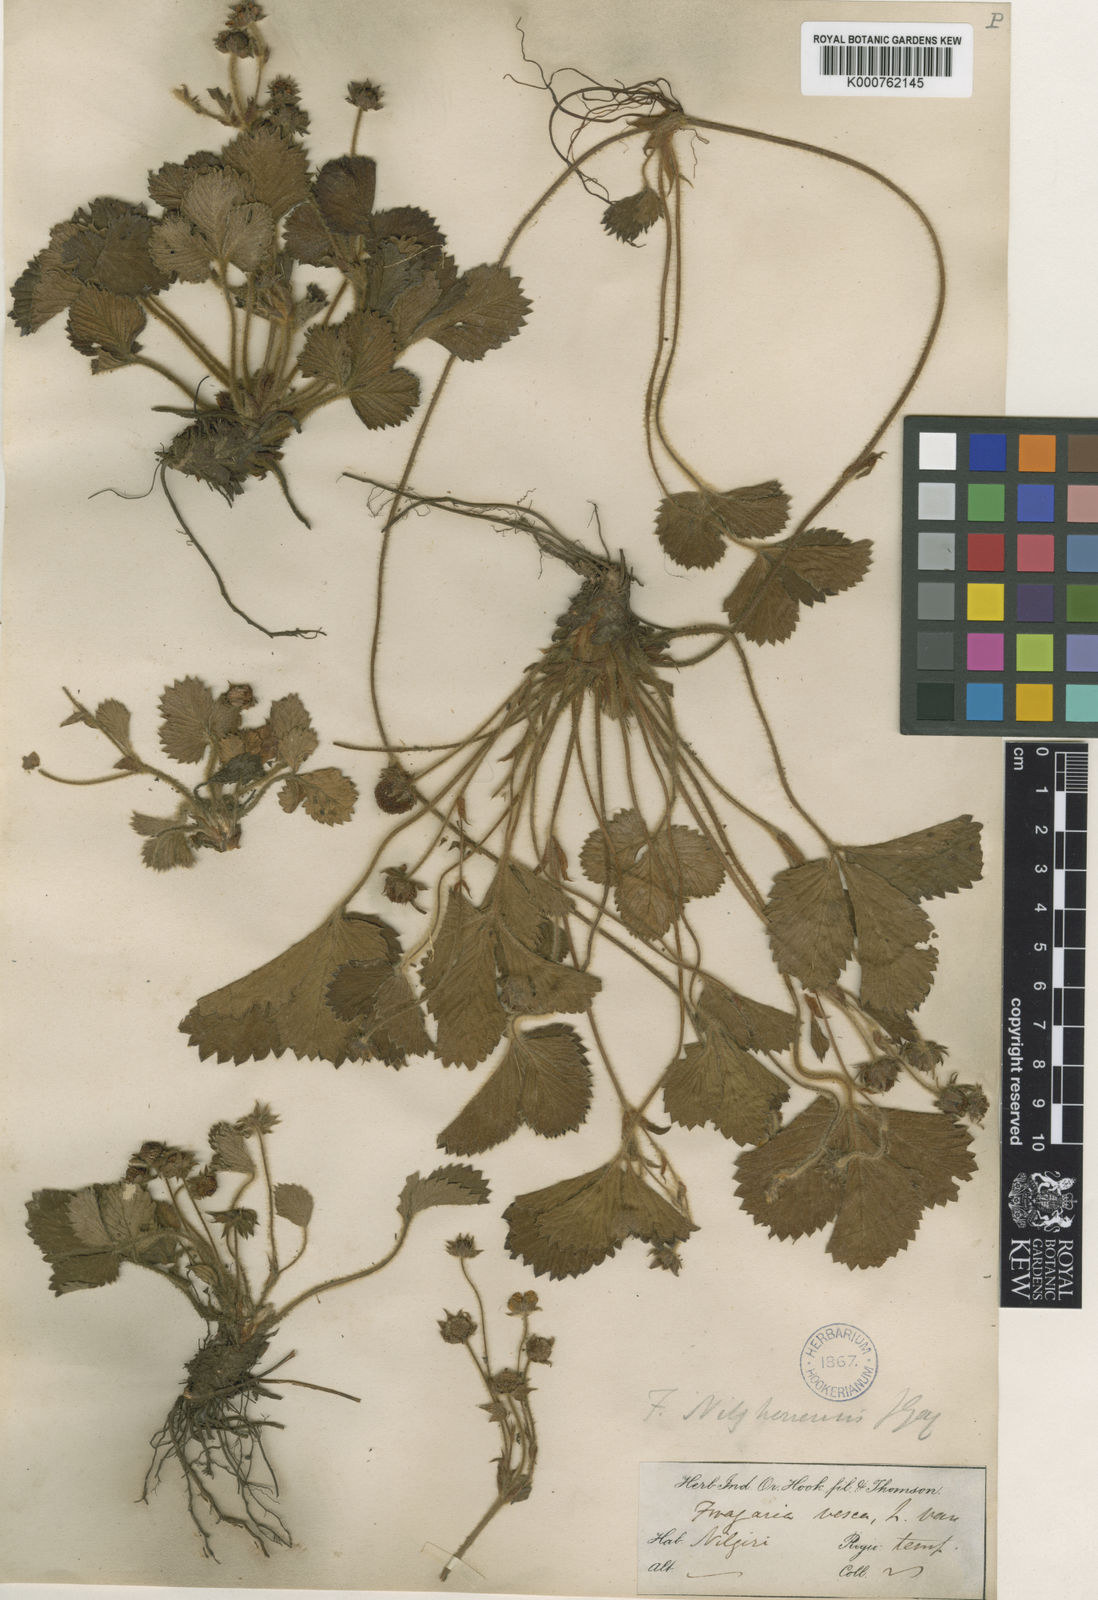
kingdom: Plantae
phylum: Tracheophyta
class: Magnoliopsida
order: Rosales
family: Rosaceae
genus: Fragaria
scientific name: Fragaria nilgerrensis
